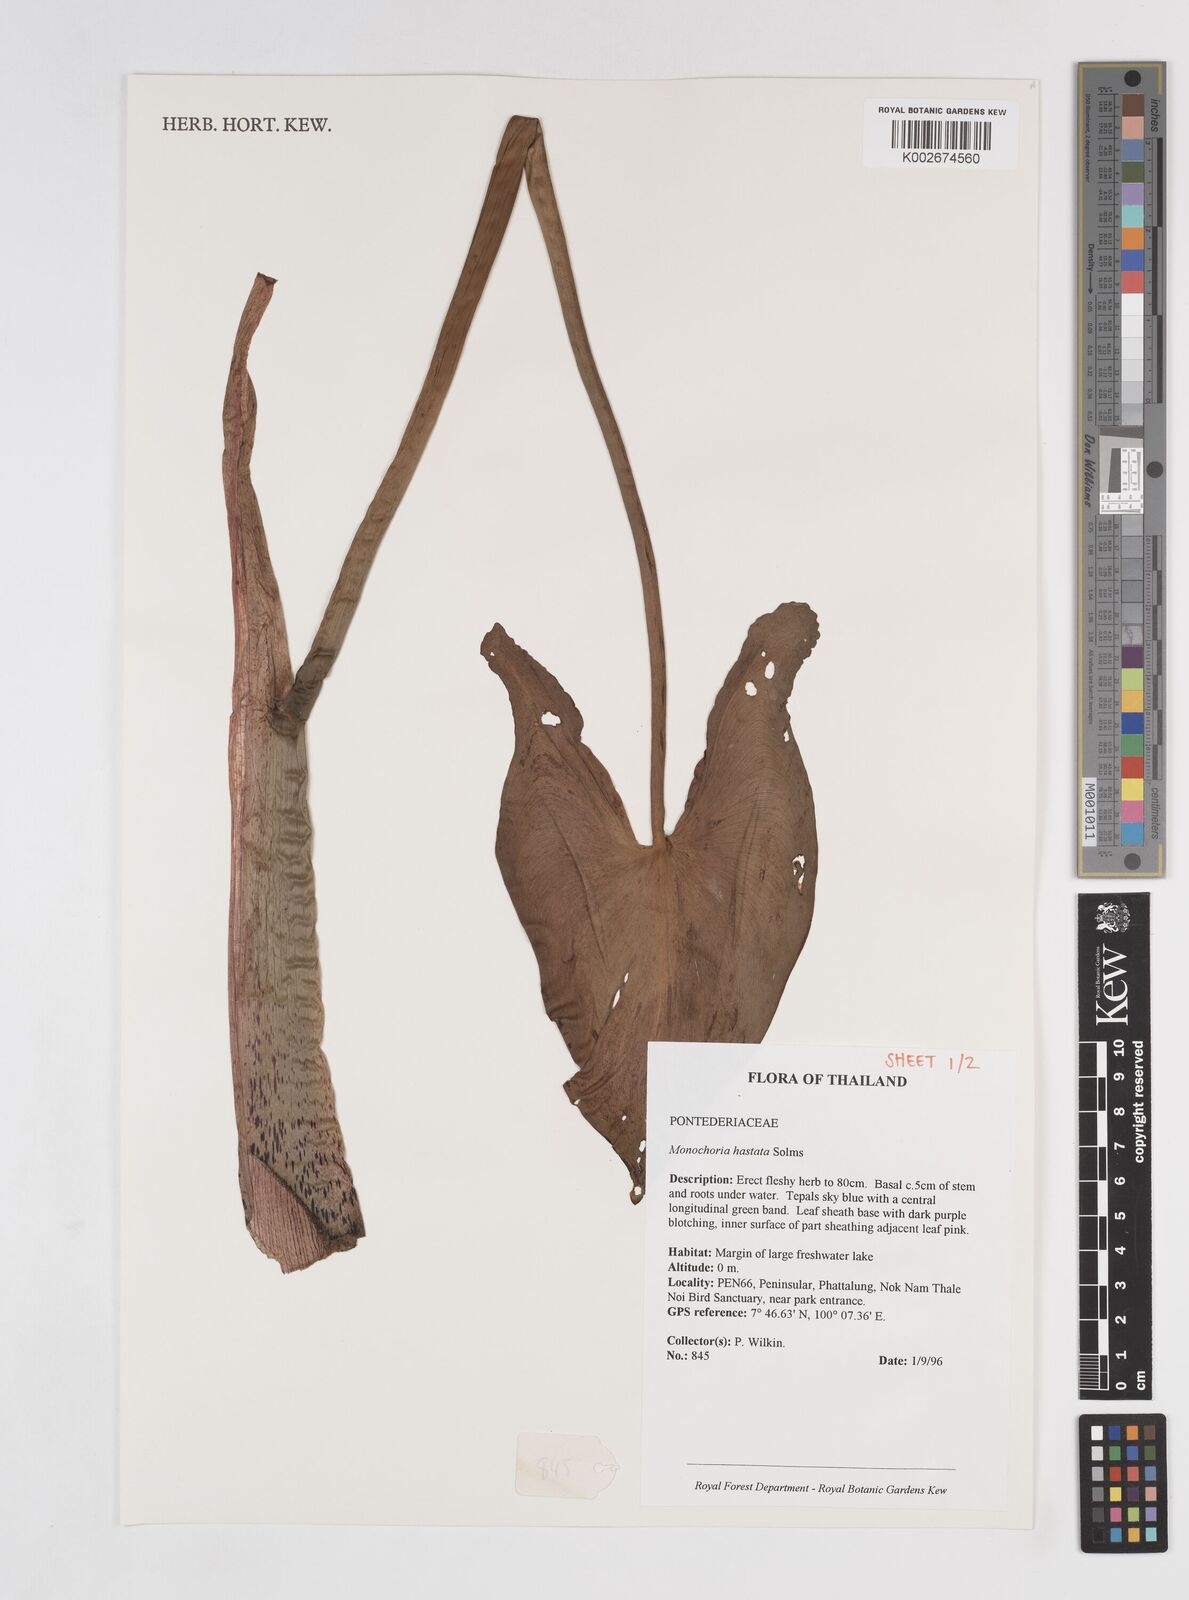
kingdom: Plantae
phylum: Tracheophyta
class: Liliopsida
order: Commelinales
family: Pontederiaceae
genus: Pontederia
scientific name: Pontederia hastata
